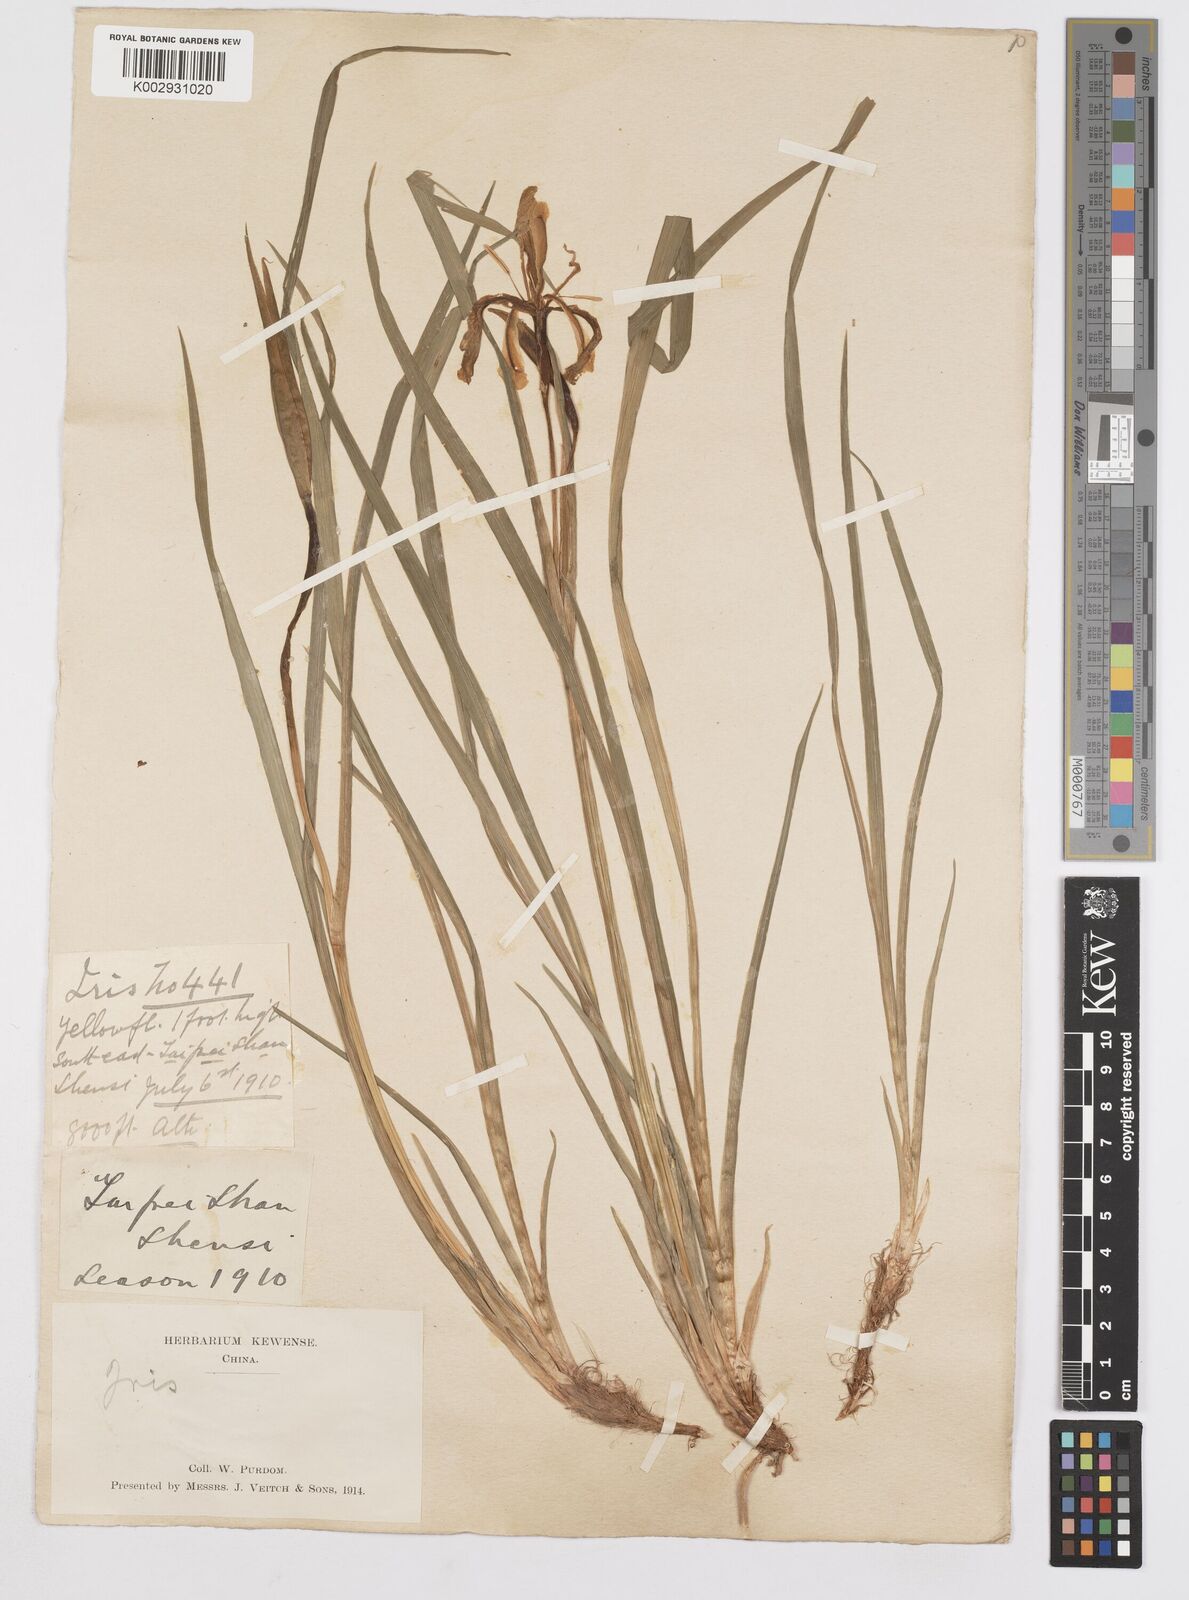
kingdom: Plantae
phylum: Tracheophyta
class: Liliopsida
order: Asparagales
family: Iridaceae
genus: Iris
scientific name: Iris
